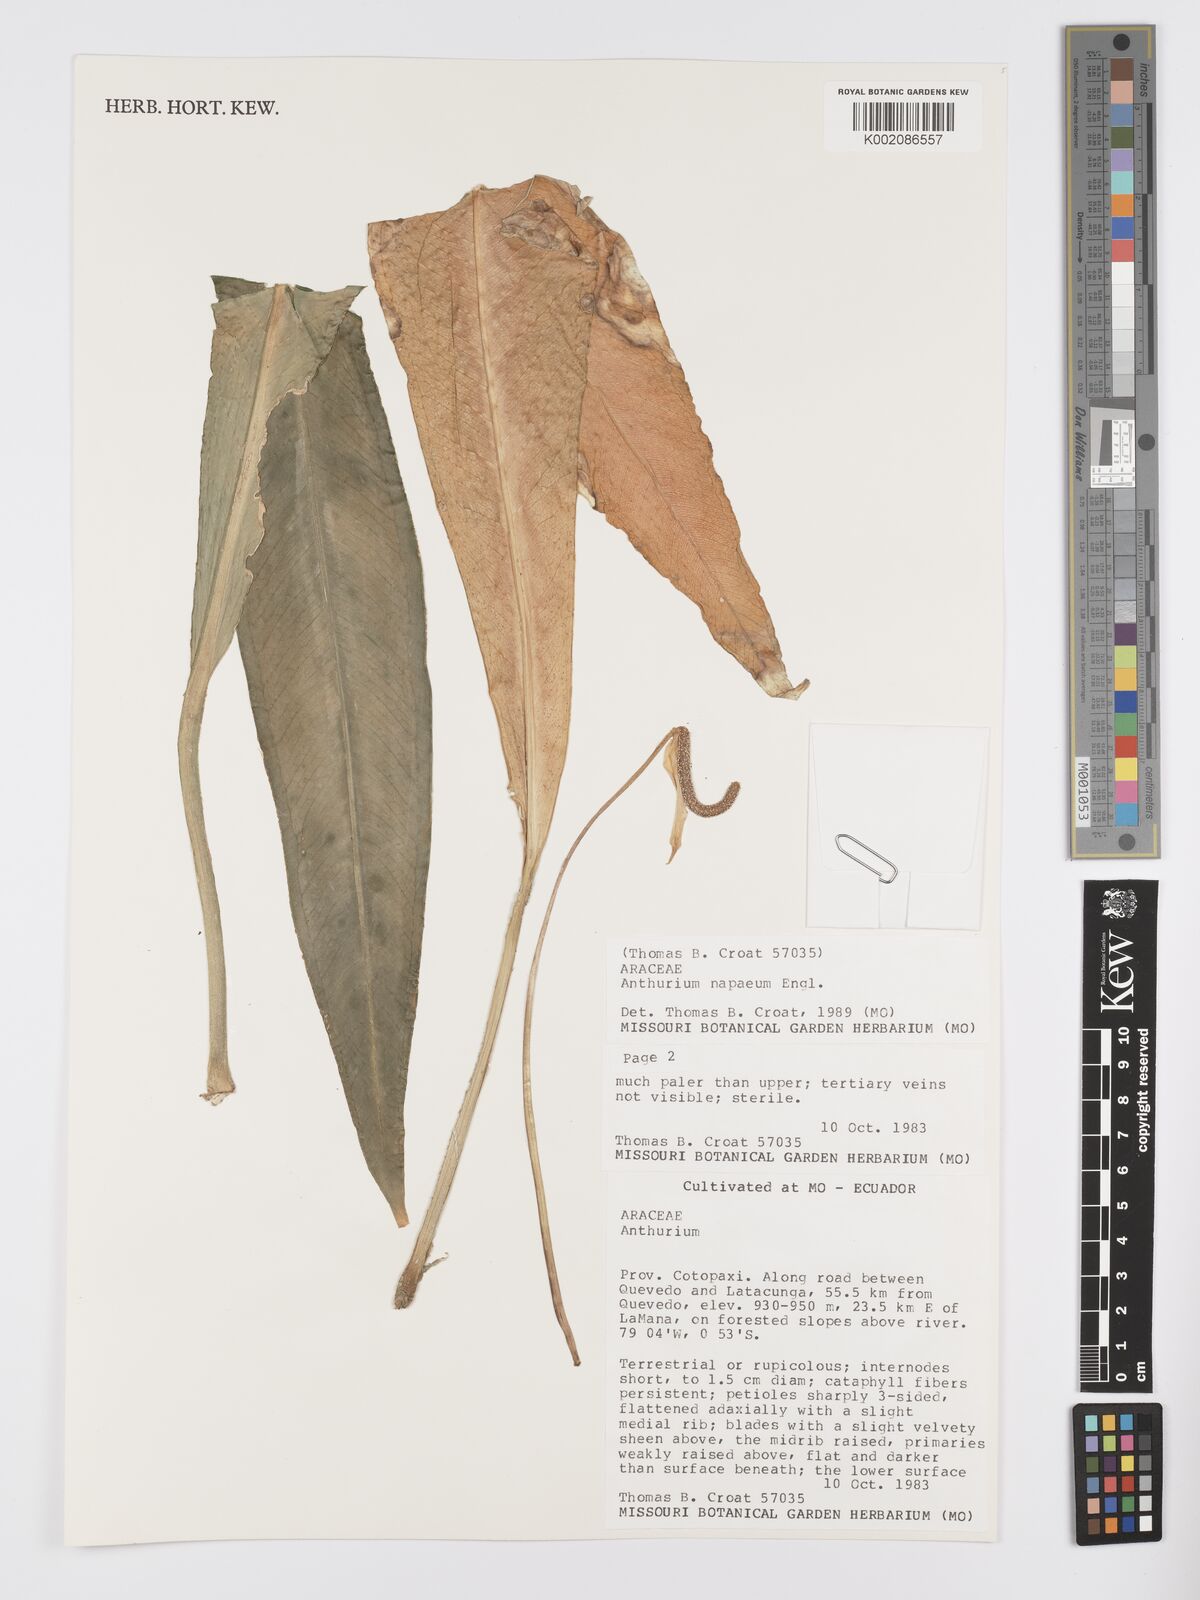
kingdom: Plantae
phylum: Tracheophyta
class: Liliopsida
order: Alismatales
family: Araceae
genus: Anthurium
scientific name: Anthurium napaeum
